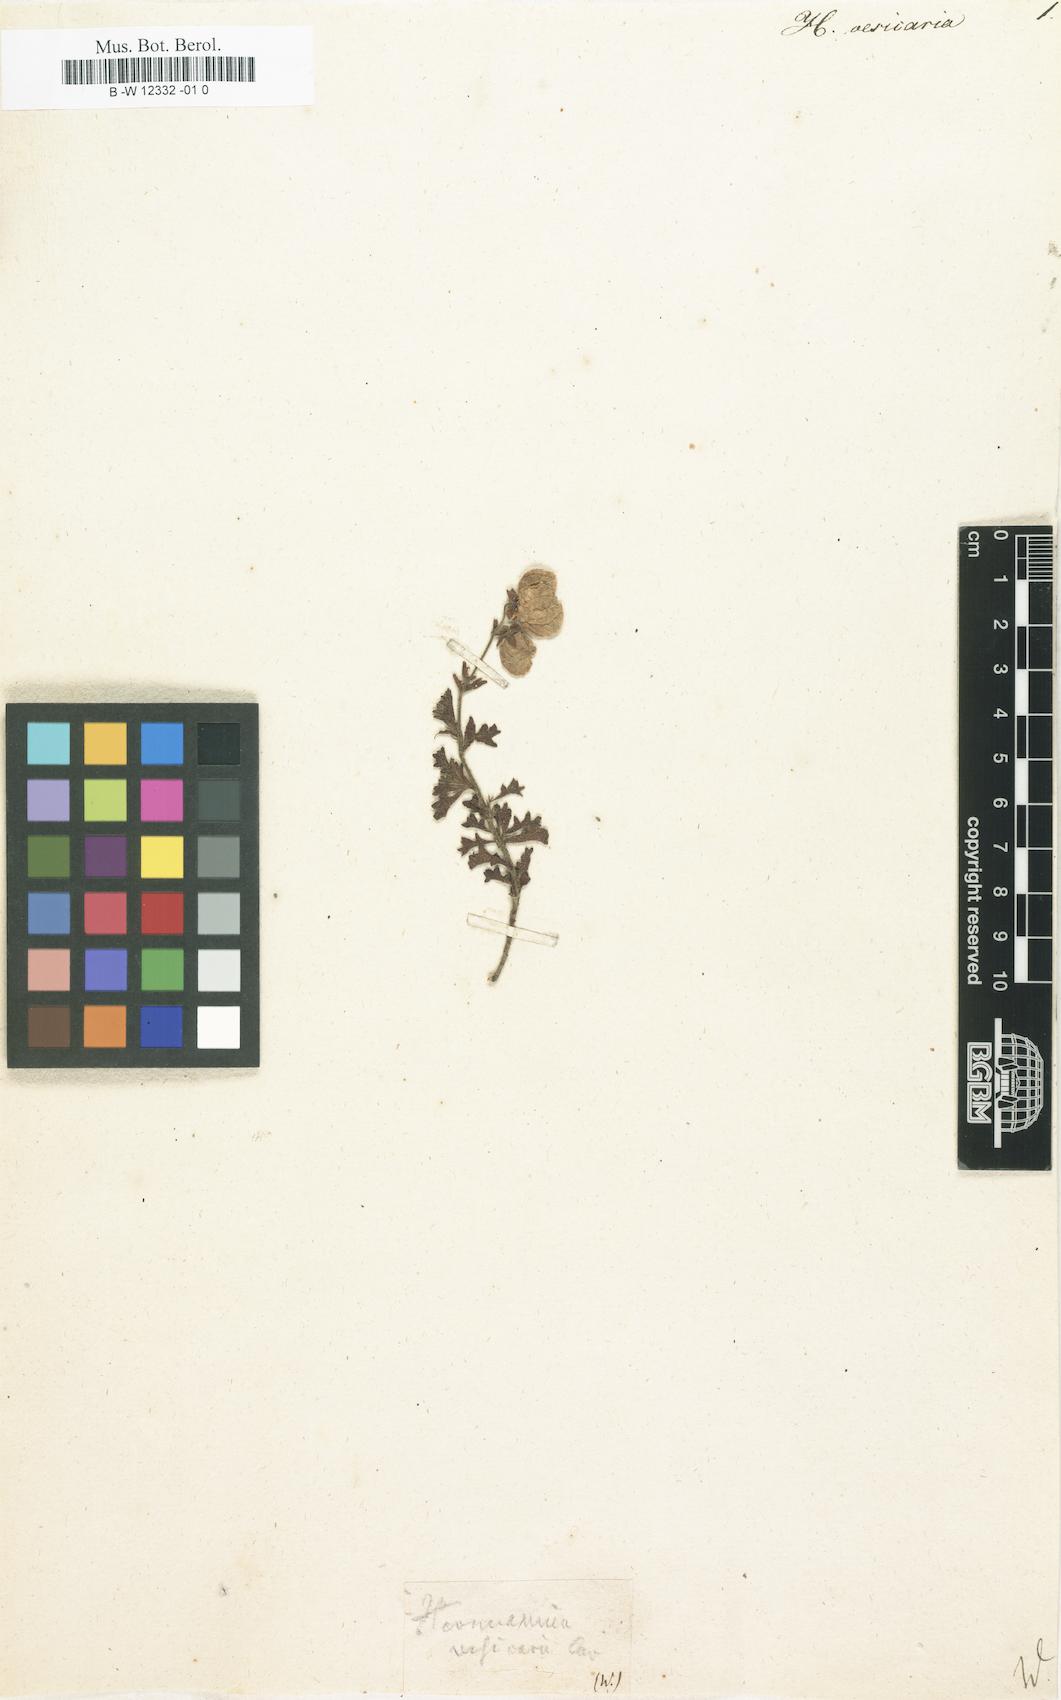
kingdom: Plantae
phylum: Tracheophyta
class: Magnoliopsida
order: Malvales
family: Malvaceae
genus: Hermannia
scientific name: Hermannia grossularifolia
